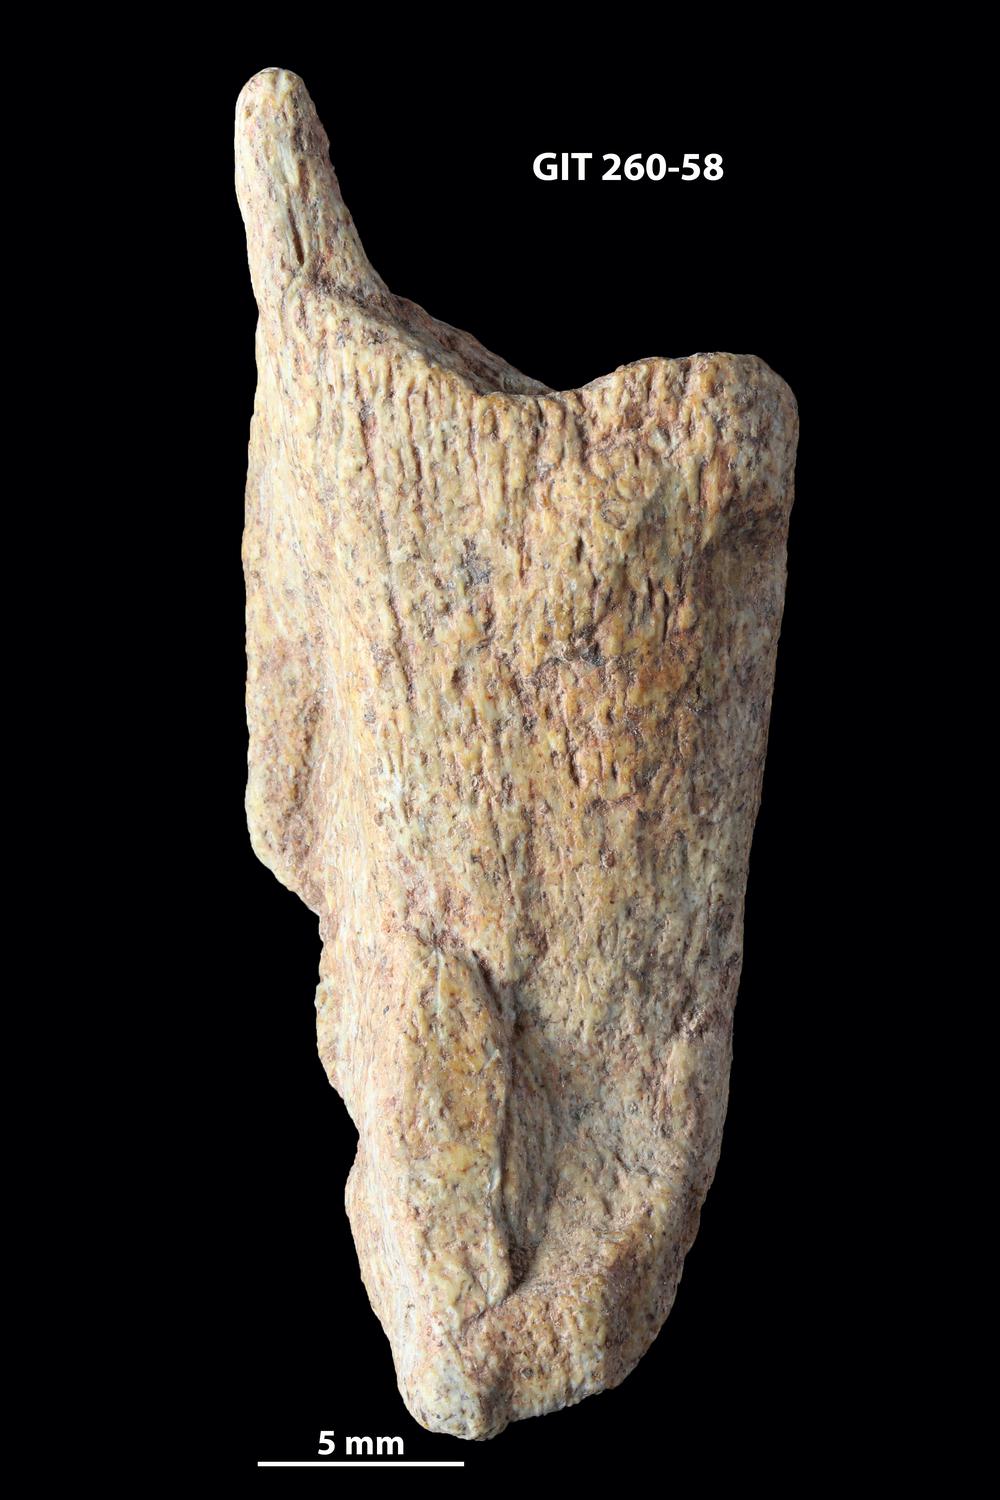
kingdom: Animalia
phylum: Chordata
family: Homostiidae
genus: Homostius
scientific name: Homostius
